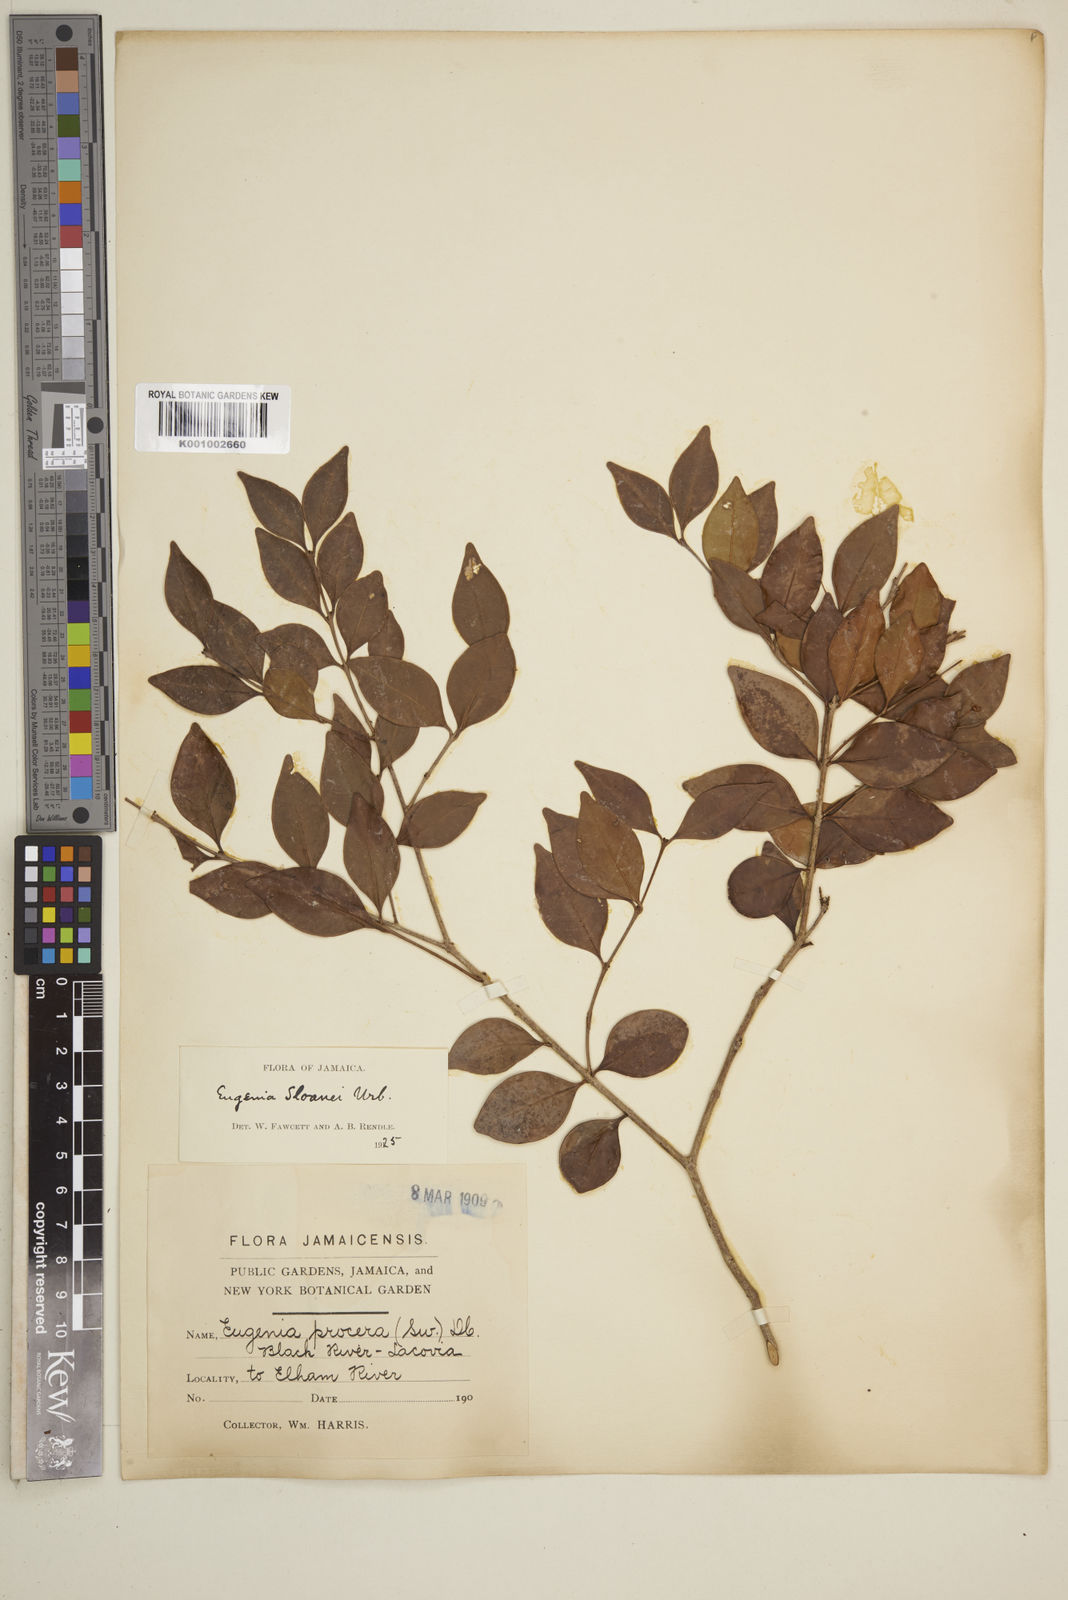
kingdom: Plantae
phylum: Tracheophyta
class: Magnoliopsida
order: Myrtales
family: Myrtaceae
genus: Eugenia
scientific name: Eugenia
